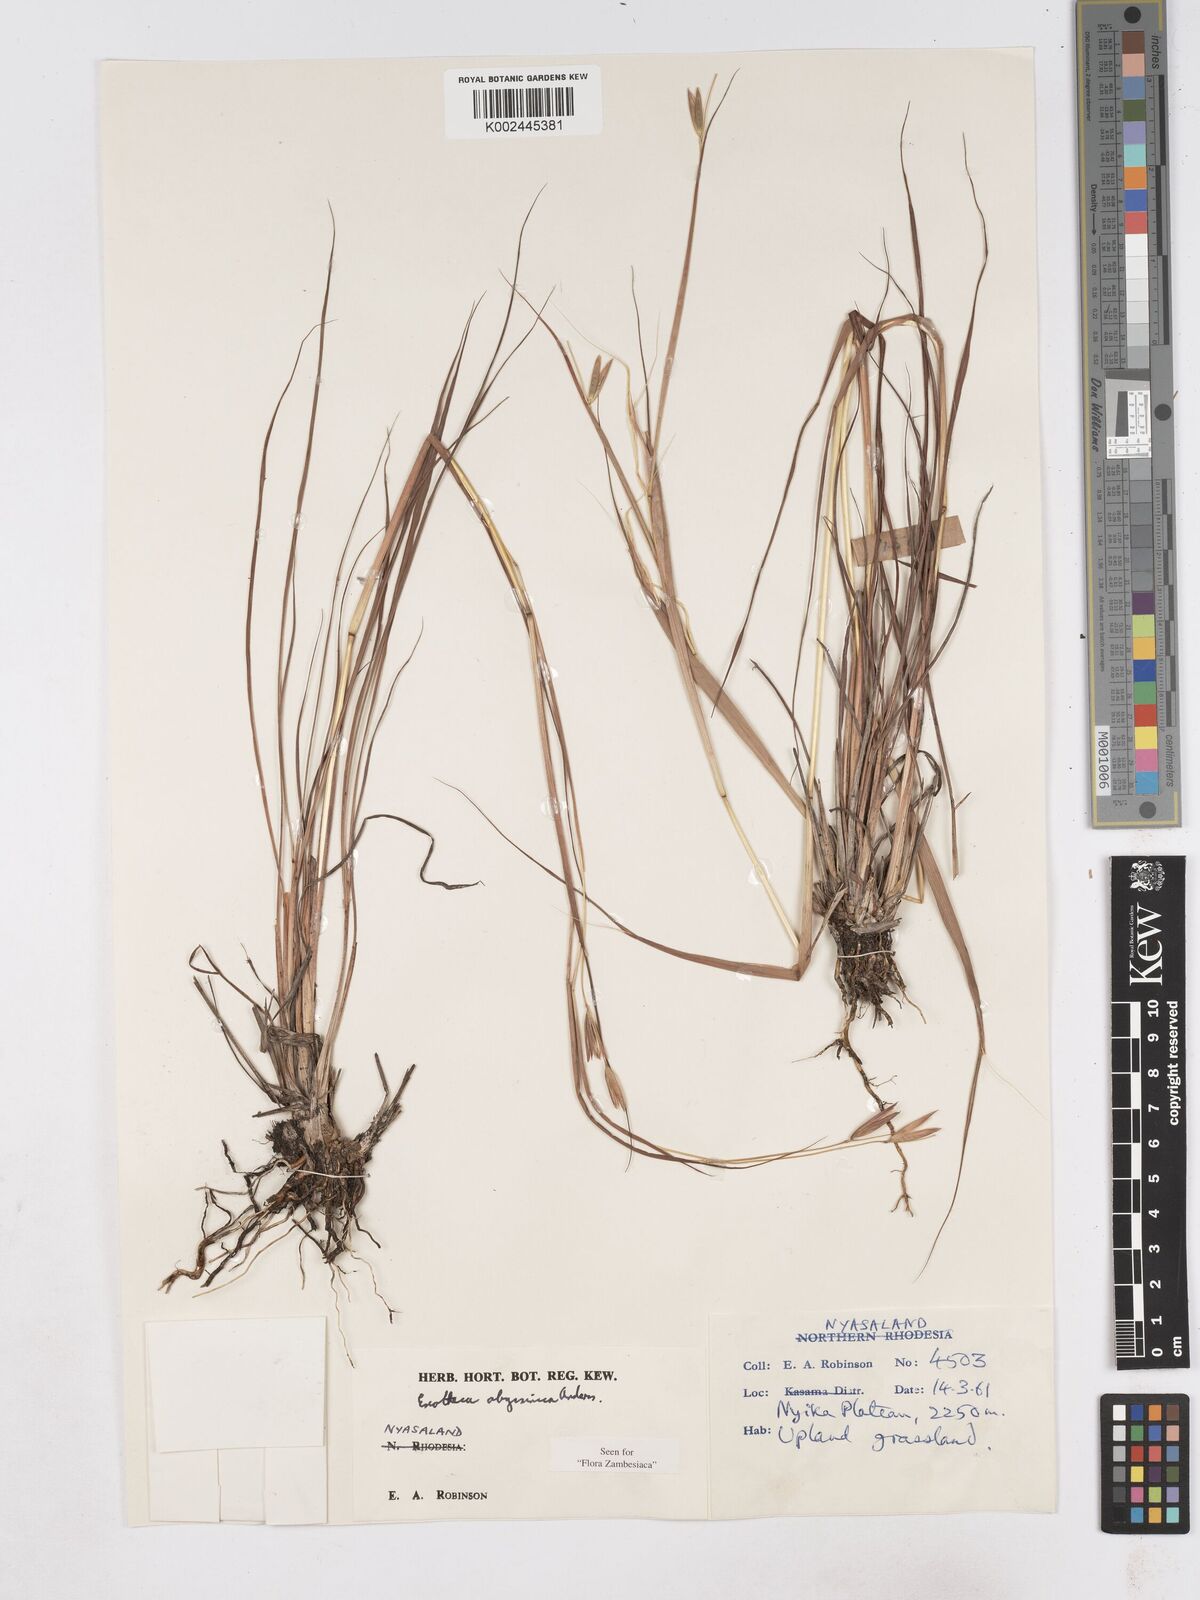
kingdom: Plantae
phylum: Tracheophyta
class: Liliopsida
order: Poales
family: Poaceae
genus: Exotheca
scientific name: Exotheca abyssinica
